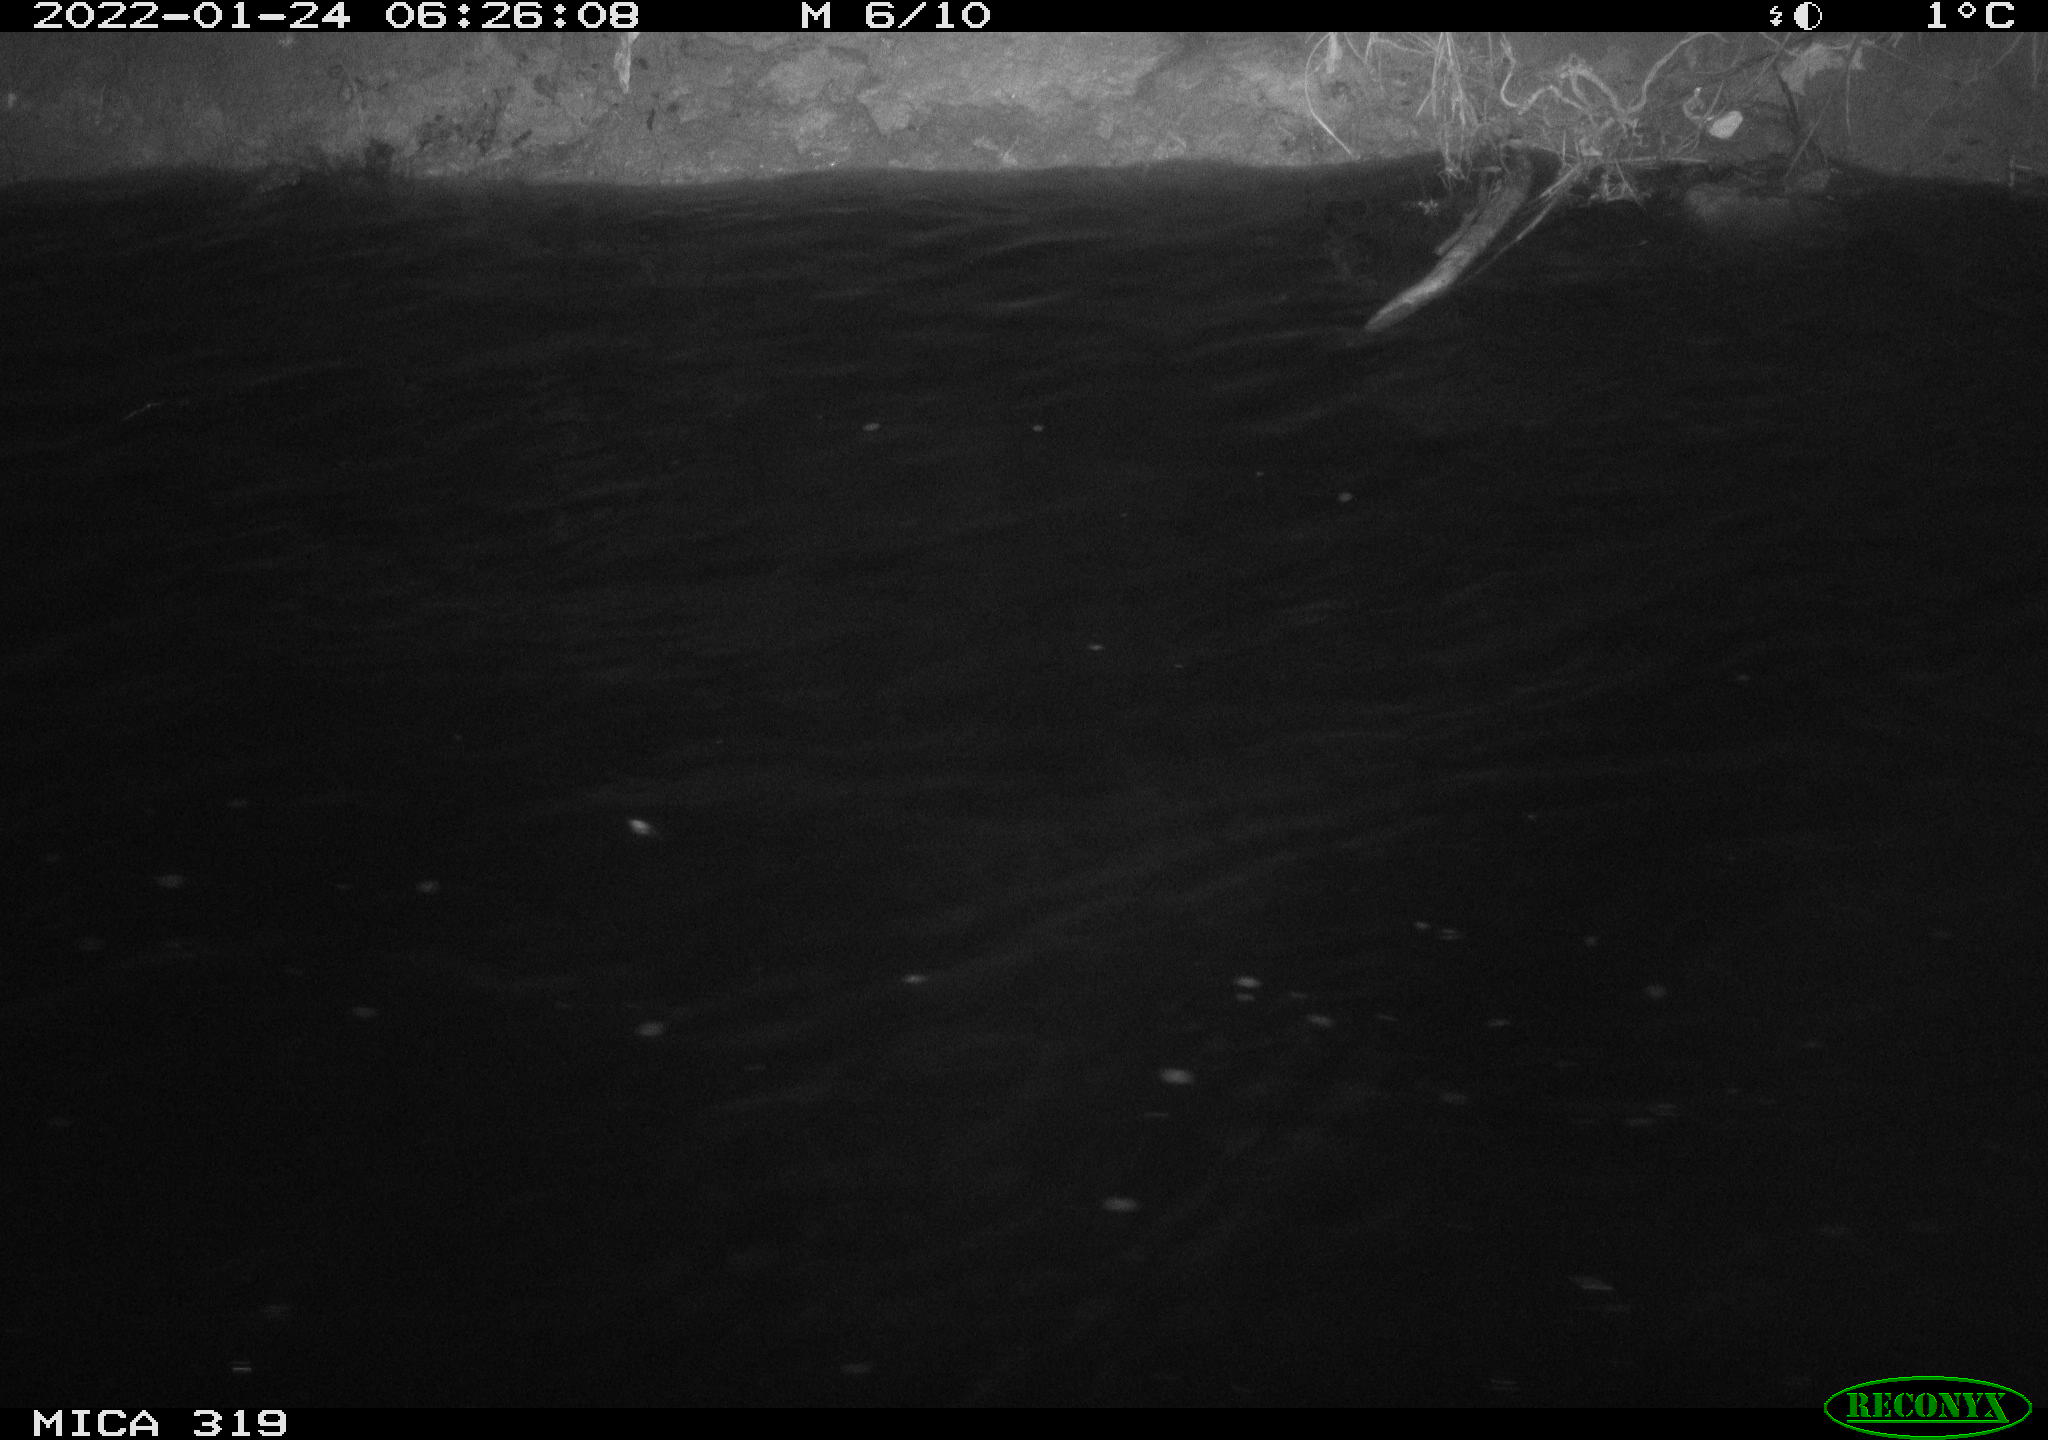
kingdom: Animalia
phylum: Chordata
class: Aves
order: Anseriformes
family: Anatidae
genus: Mareca
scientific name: Mareca strepera
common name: Gadwall
